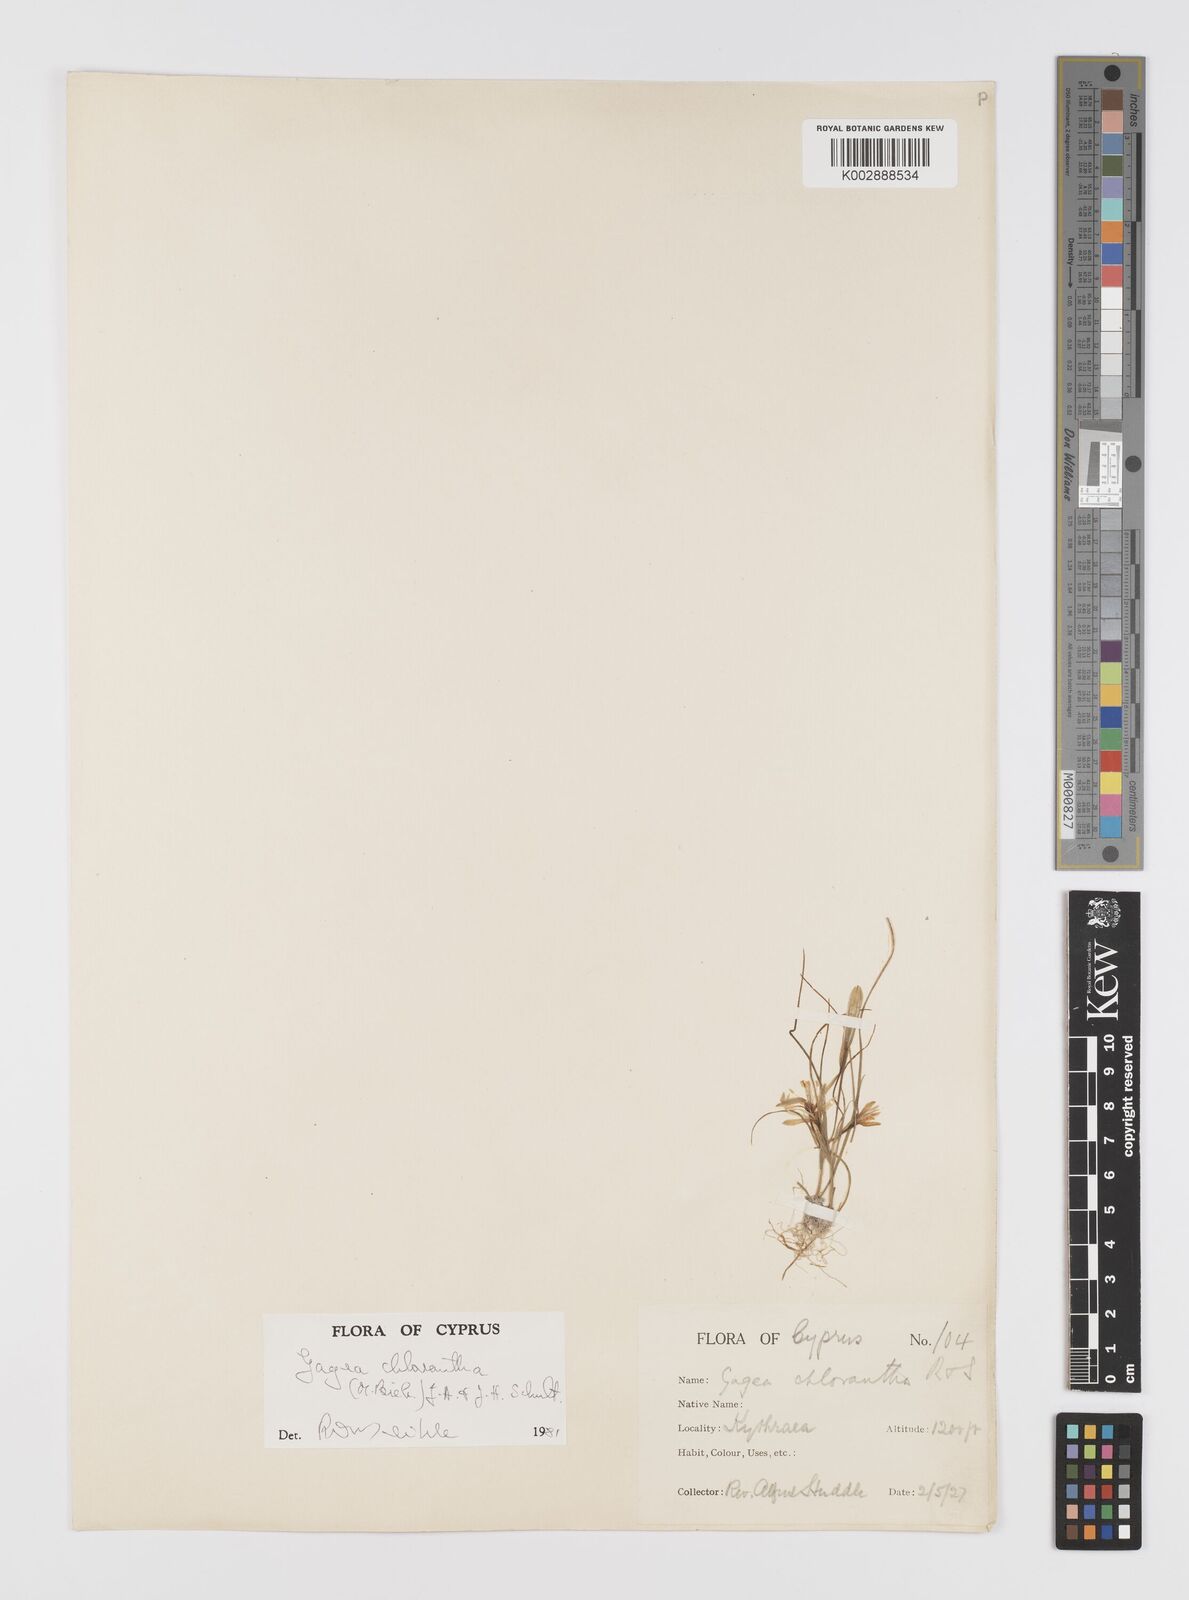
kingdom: Plantae
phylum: Tracheophyta
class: Liliopsida
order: Liliales
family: Liliaceae
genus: Gagea
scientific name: Gagea chlorantha
